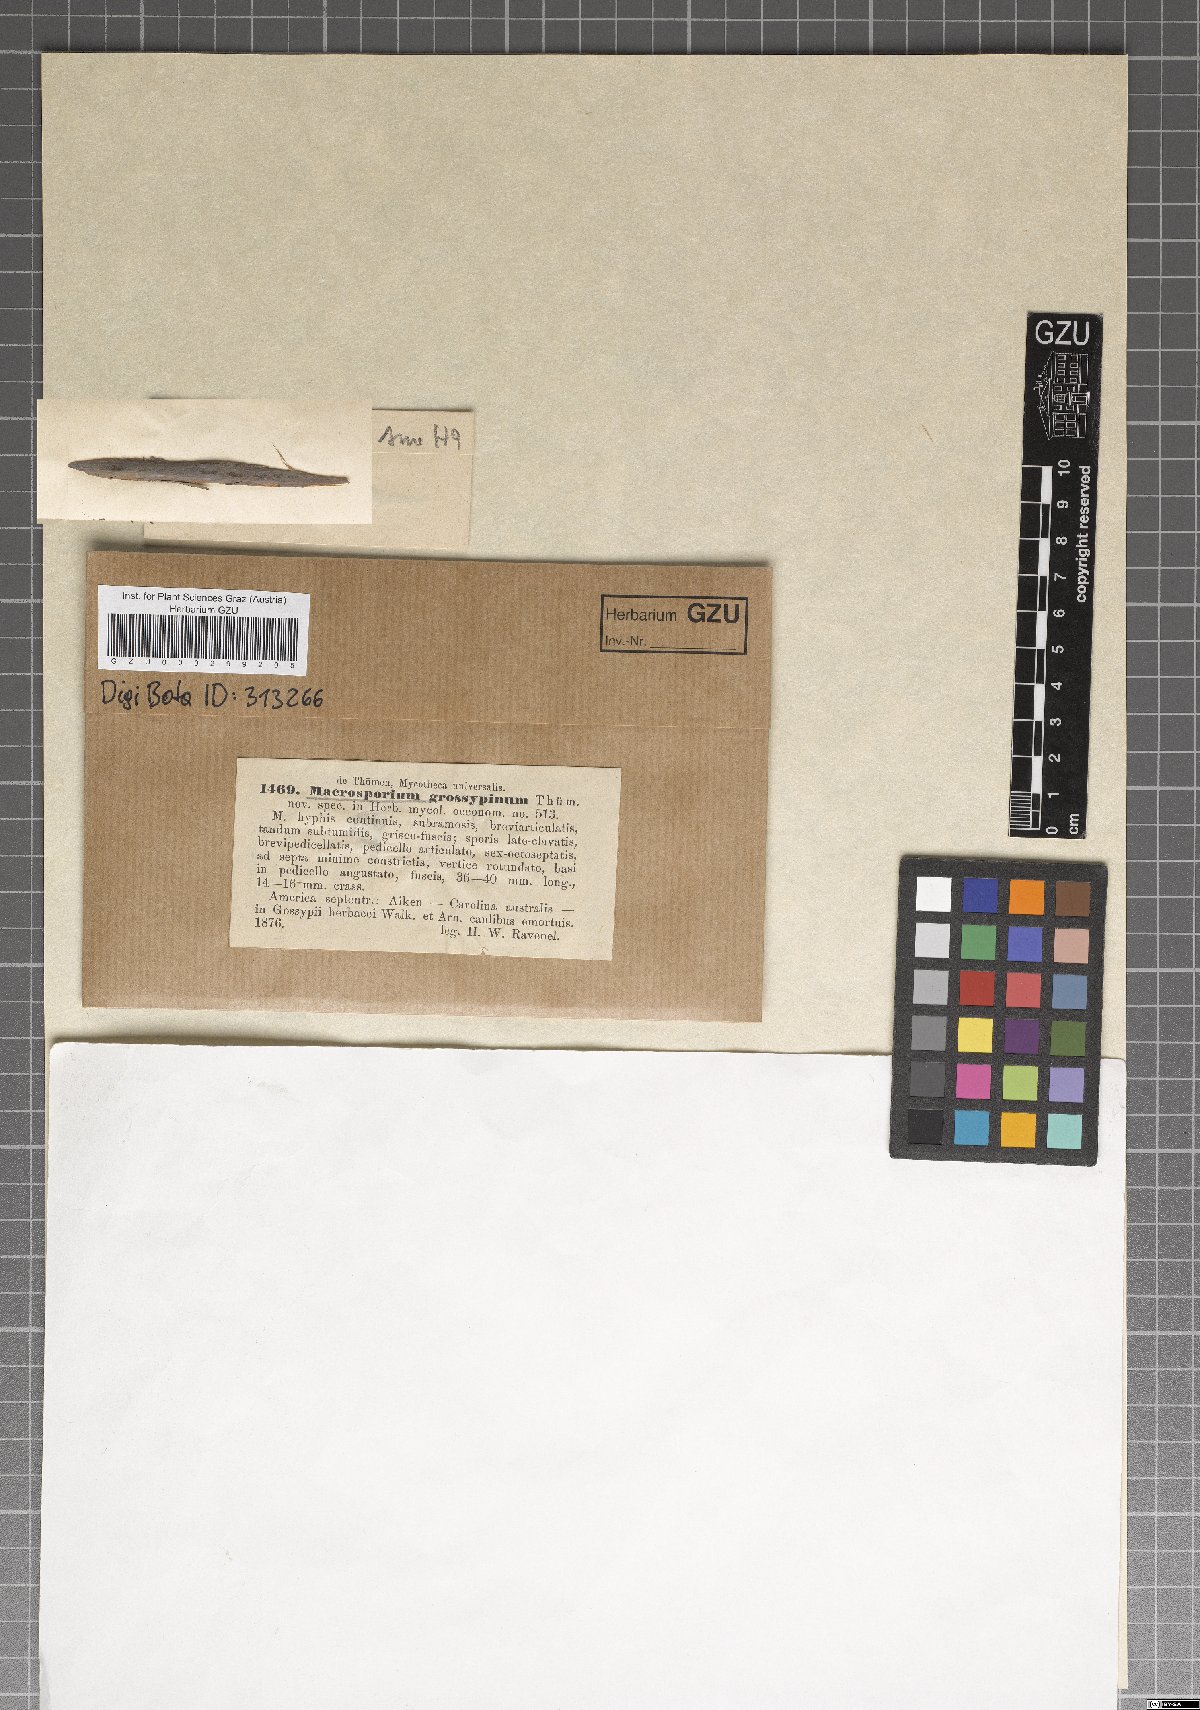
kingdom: Fungi
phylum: Ascomycota
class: Dothideomycetes
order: Pleosporales
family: Pleosporaceae
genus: Alternaria
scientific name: Alternaria gossypina
